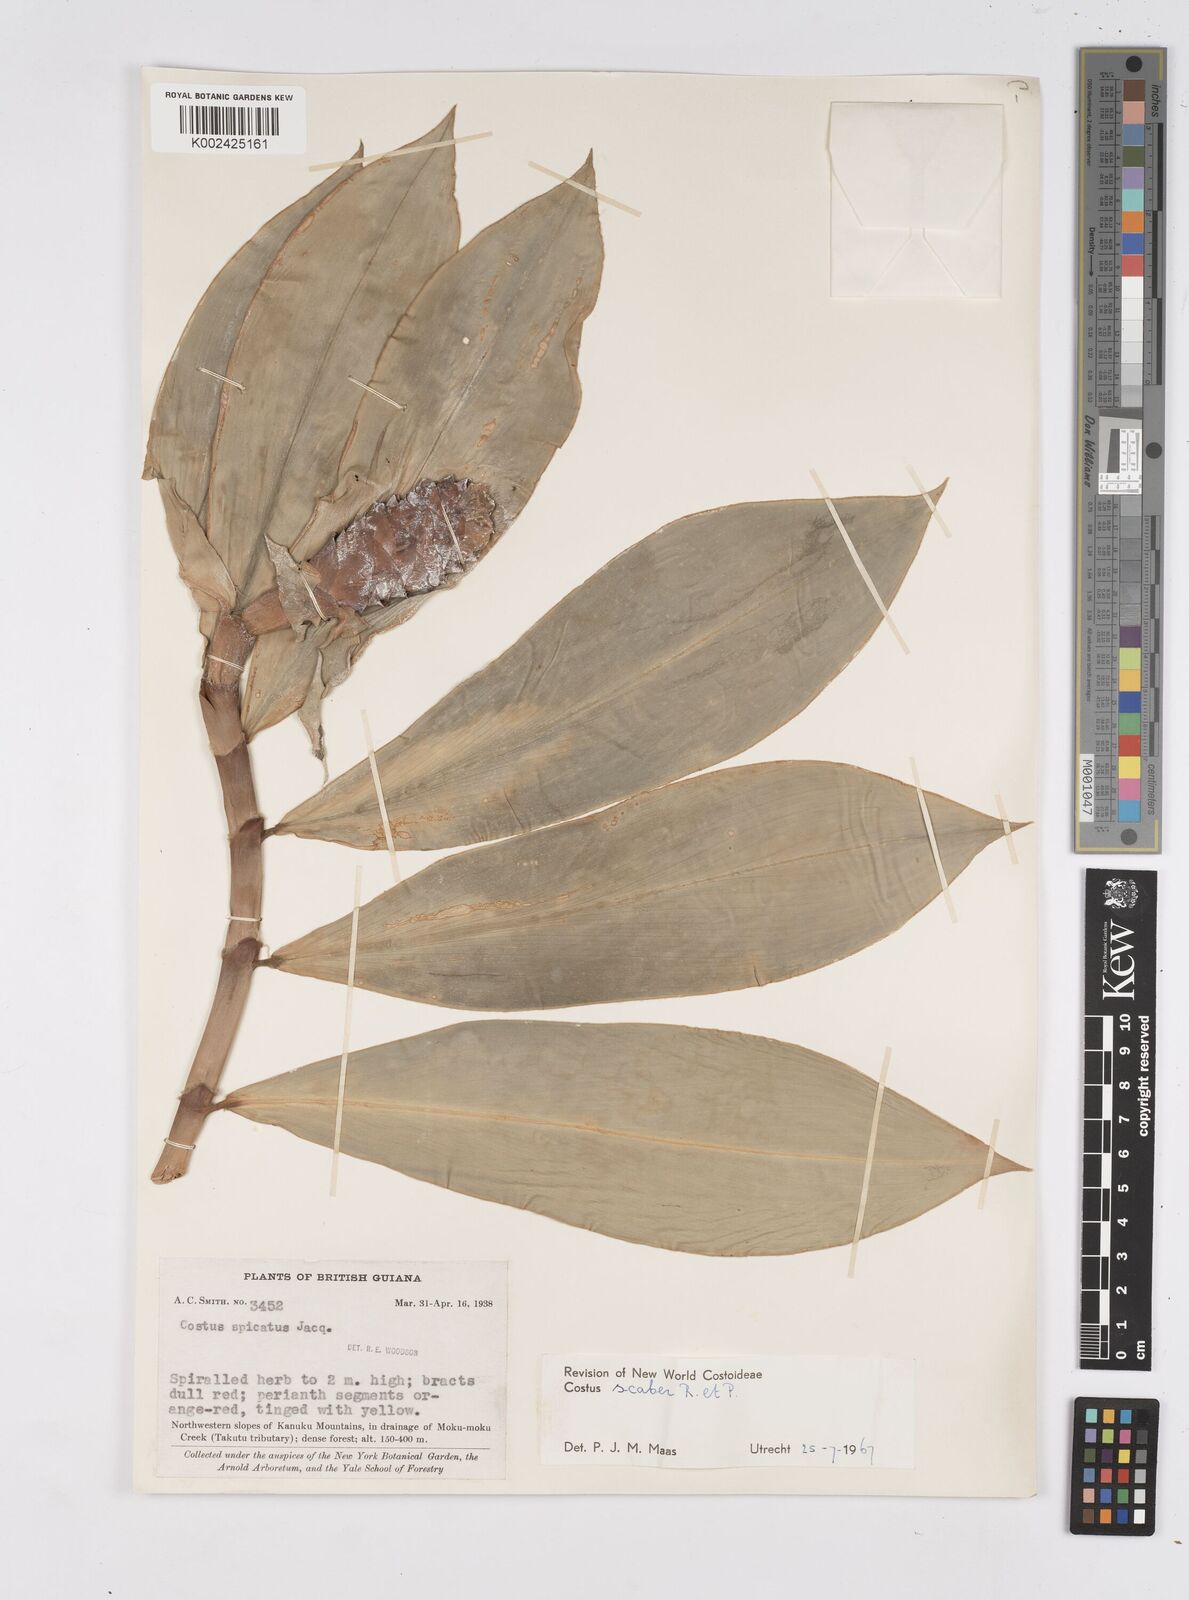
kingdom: Plantae
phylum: Tracheophyta
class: Liliopsida
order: Zingiberales
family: Costaceae
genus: Costus
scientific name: Costus scaber
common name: Spiral head ginger
